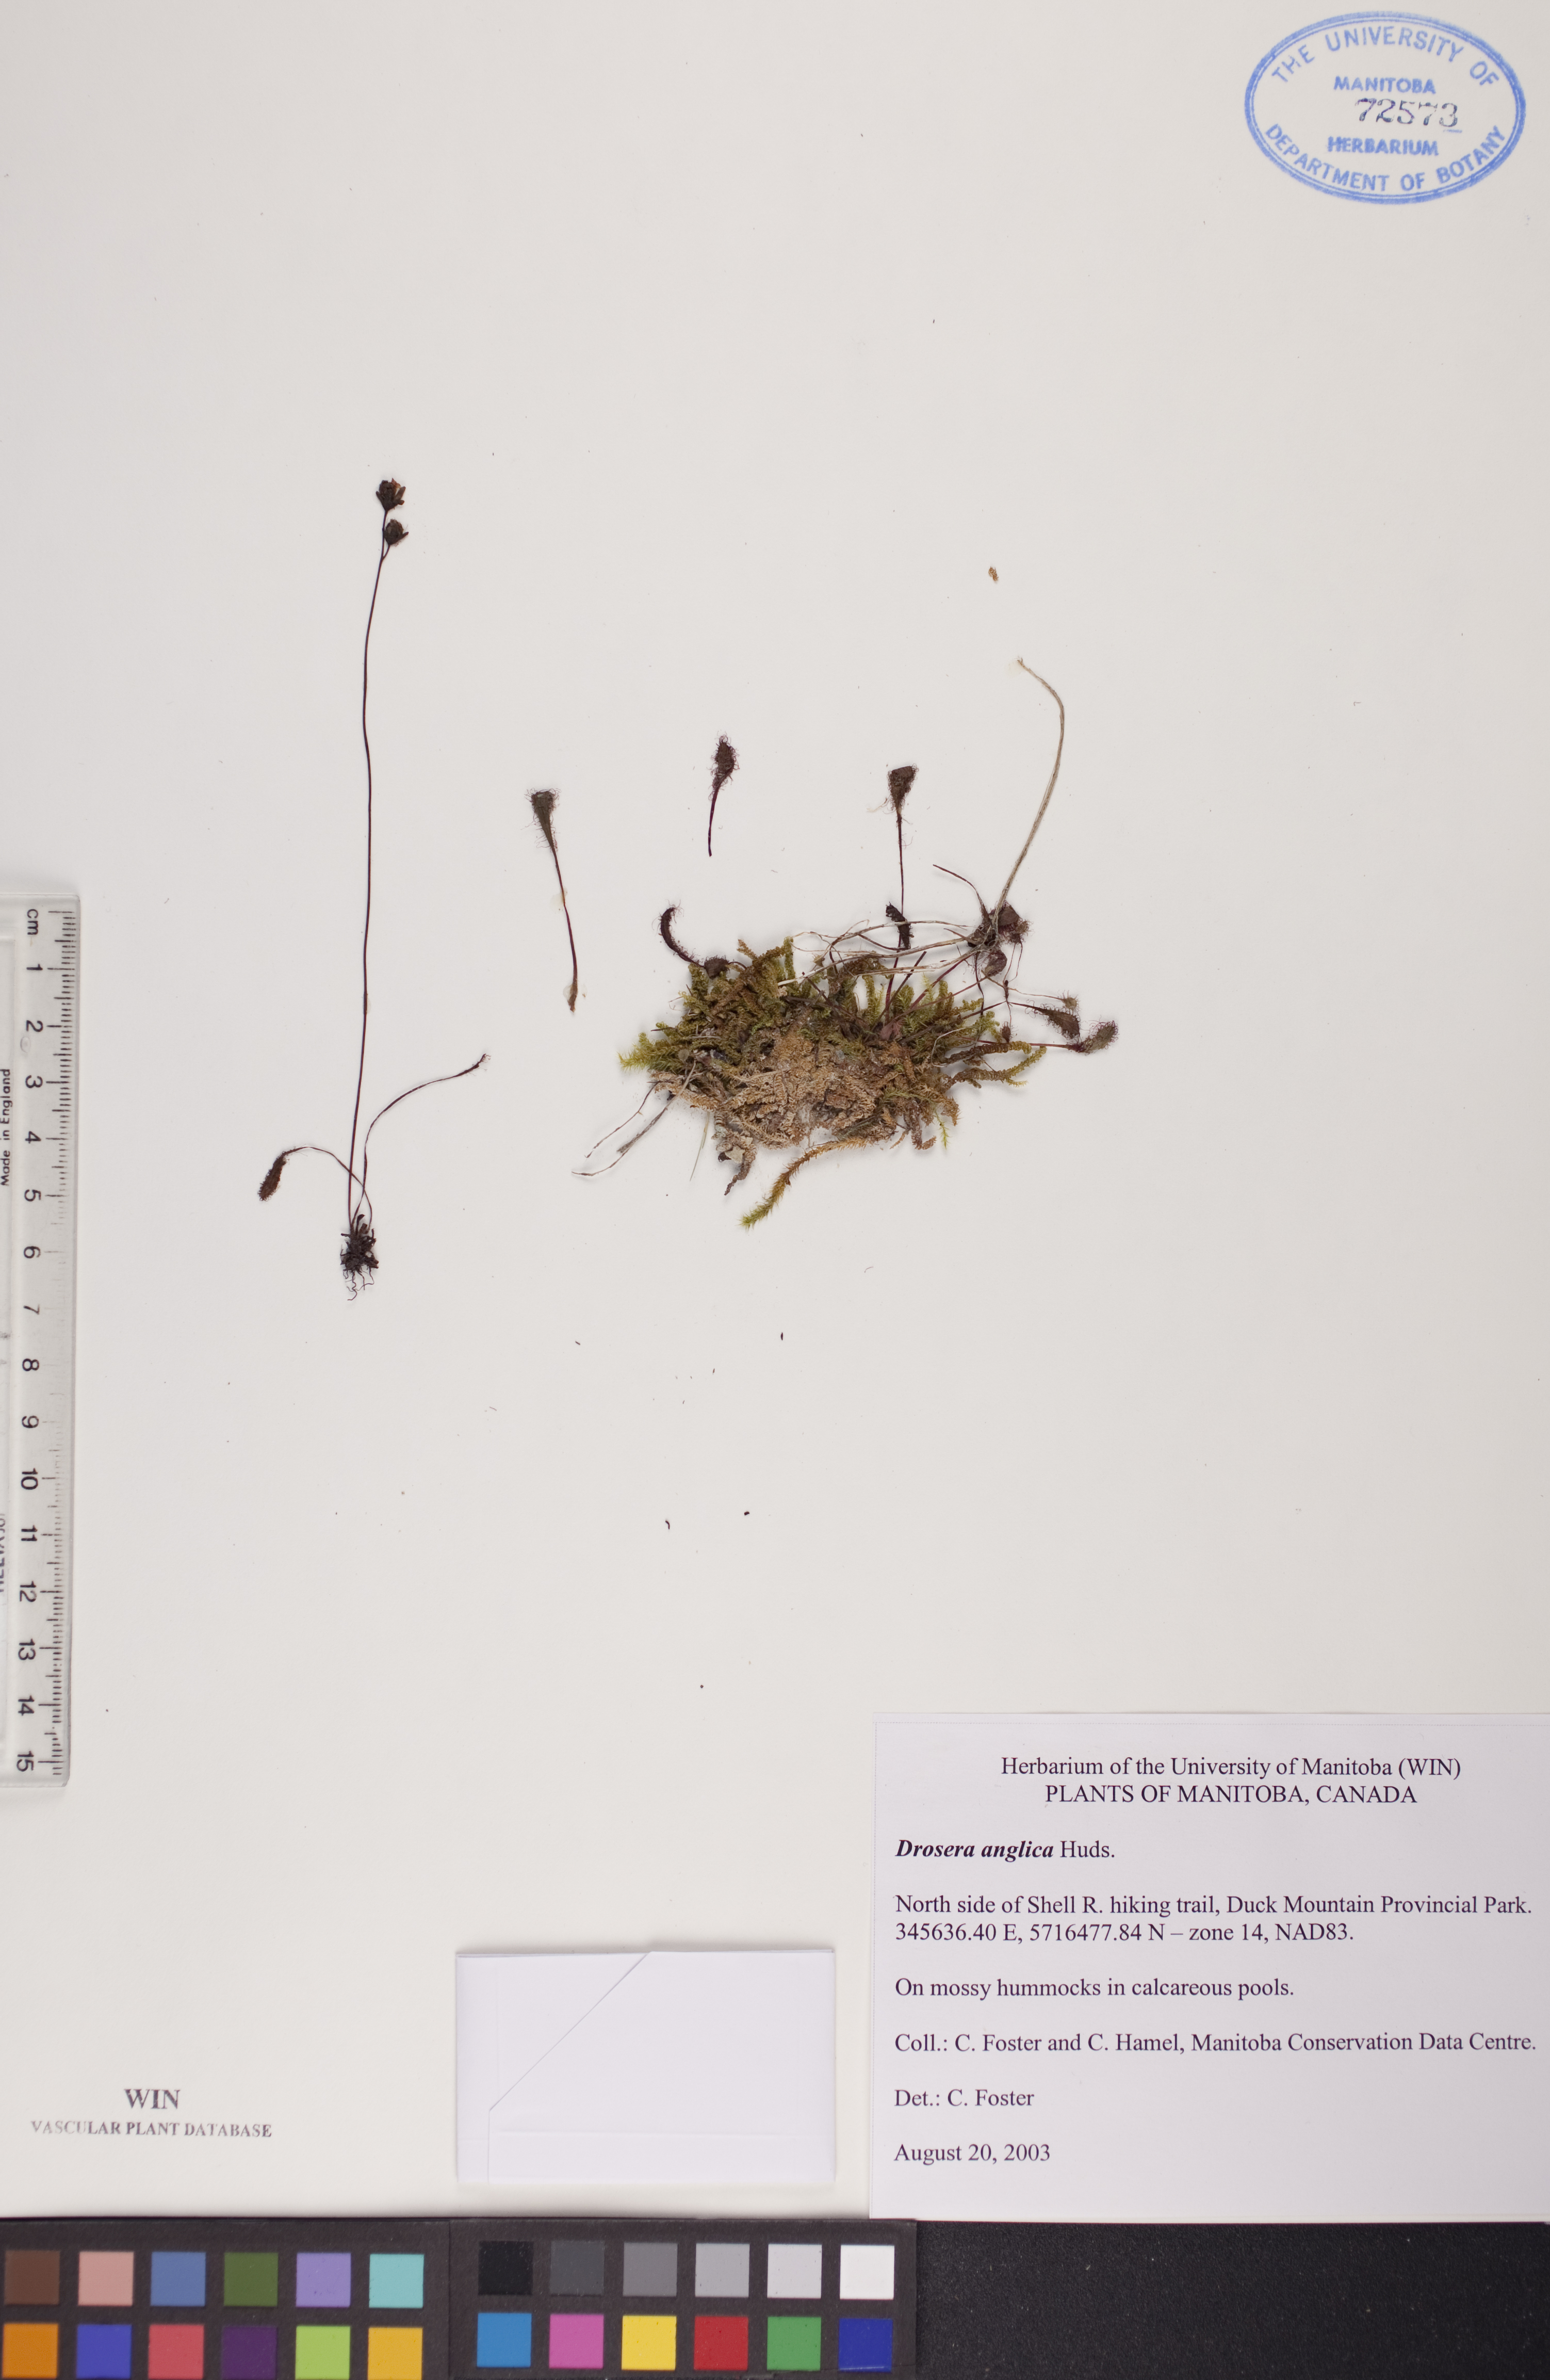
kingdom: Plantae
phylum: Tracheophyta
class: Magnoliopsida
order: Caryophyllales
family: Droseraceae
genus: Drosera
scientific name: Drosera anglica
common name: Great sundew
